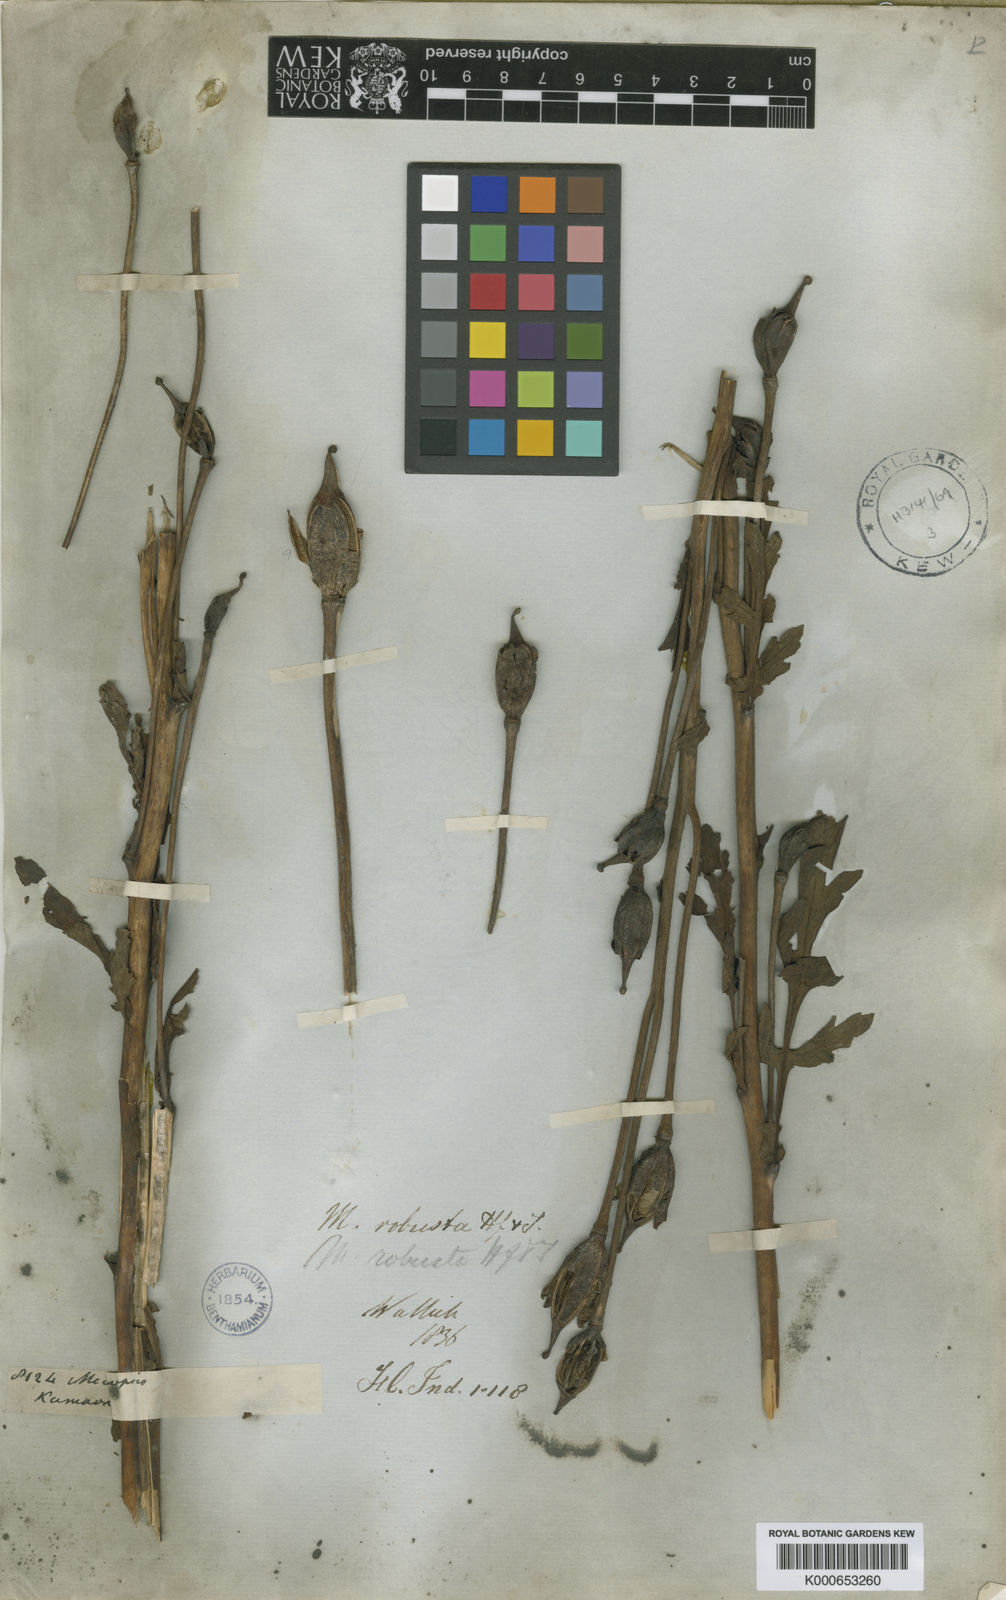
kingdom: Plantae
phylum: Tracheophyta
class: Magnoliopsida
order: Ranunculales
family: Papaveraceae
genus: Meconopsis
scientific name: Meconopsis robusta
